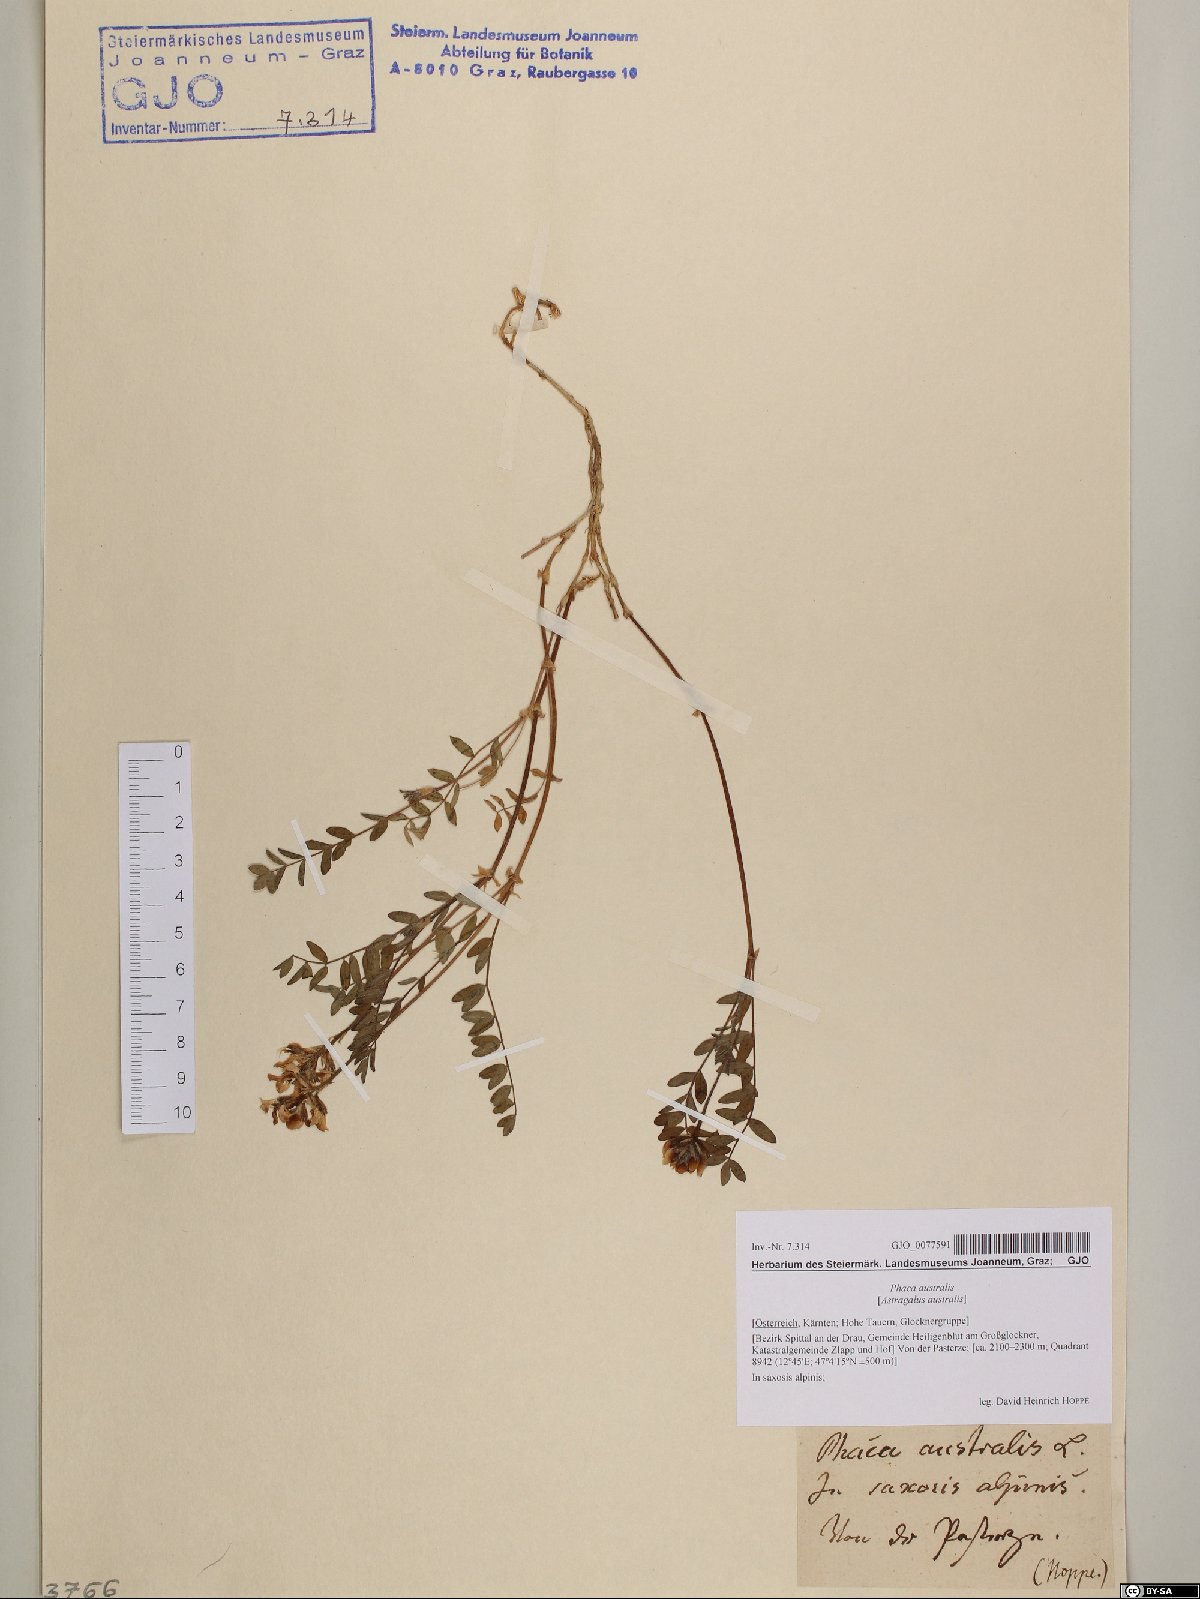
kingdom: Plantae
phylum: Tracheophyta
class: Magnoliopsida
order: Fabales
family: Fabaceae
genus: Astragalus
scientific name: Astragalus australis
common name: Indian milk-vetch
